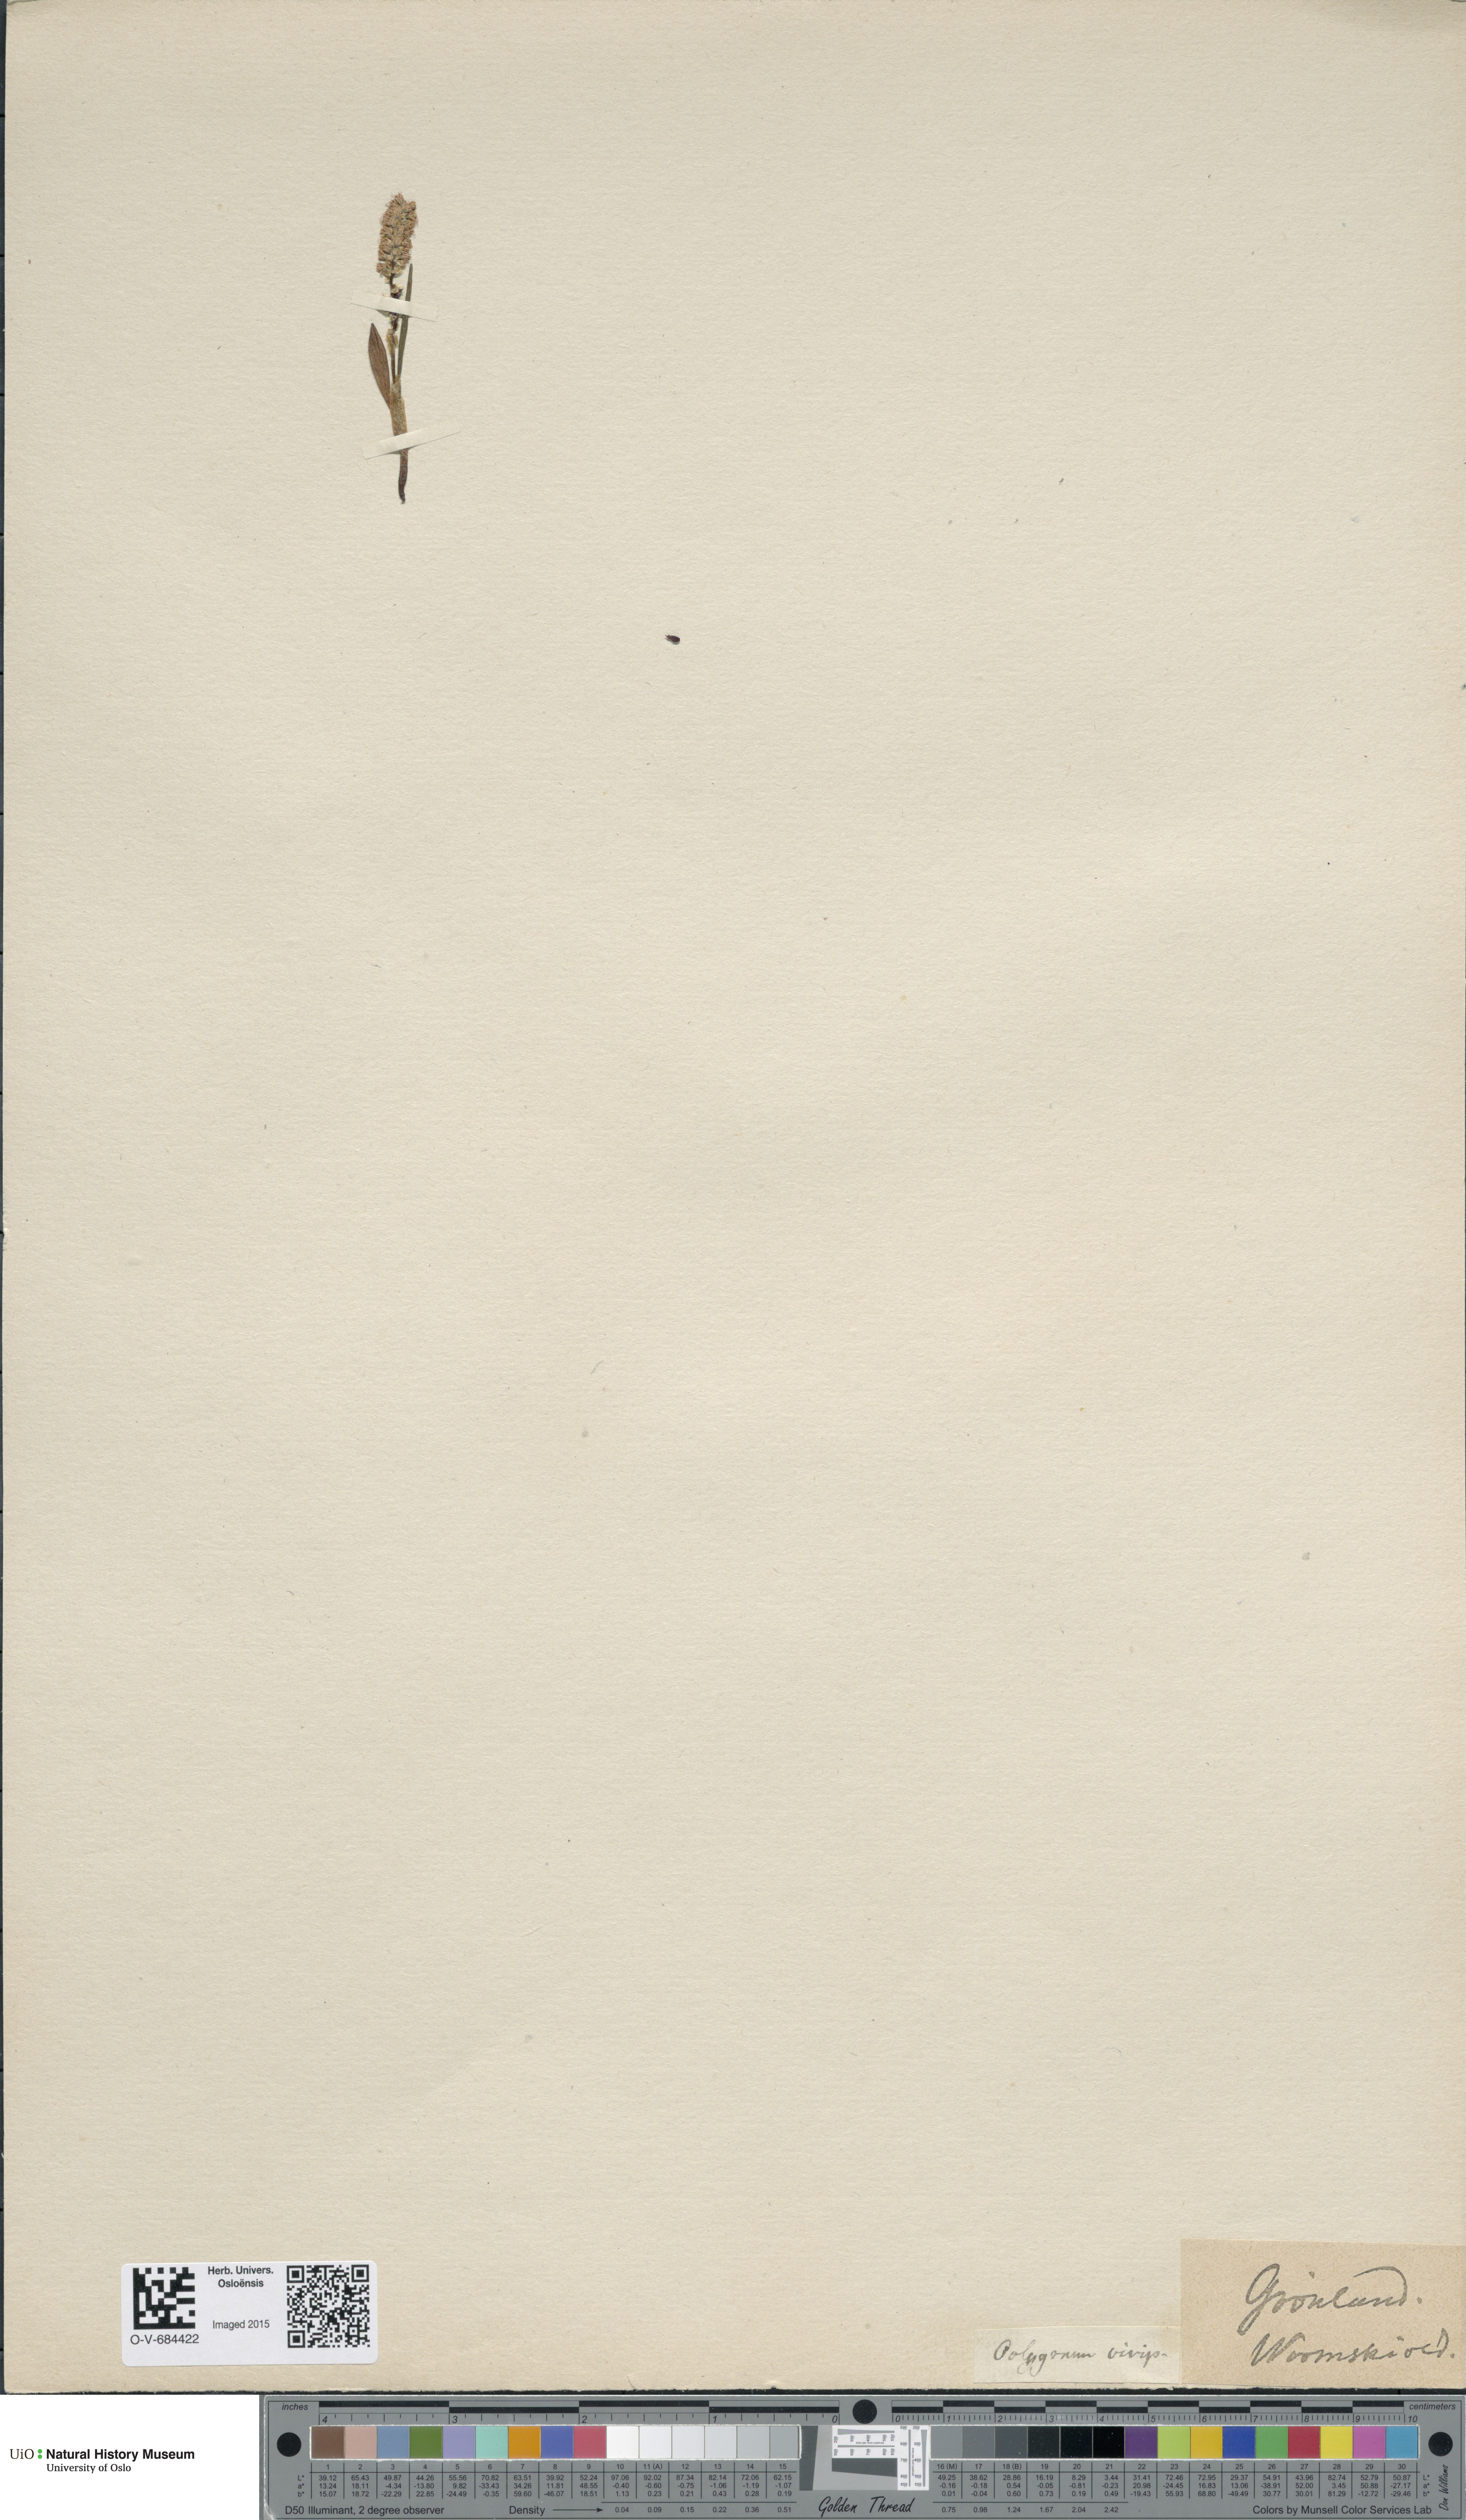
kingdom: Plantae
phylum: Tracheophyta
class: Magnoliopsida
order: Caryophyllales
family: Polygonaceae
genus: Bistorta
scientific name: Bistorta vivipara
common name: Alpine bistort
